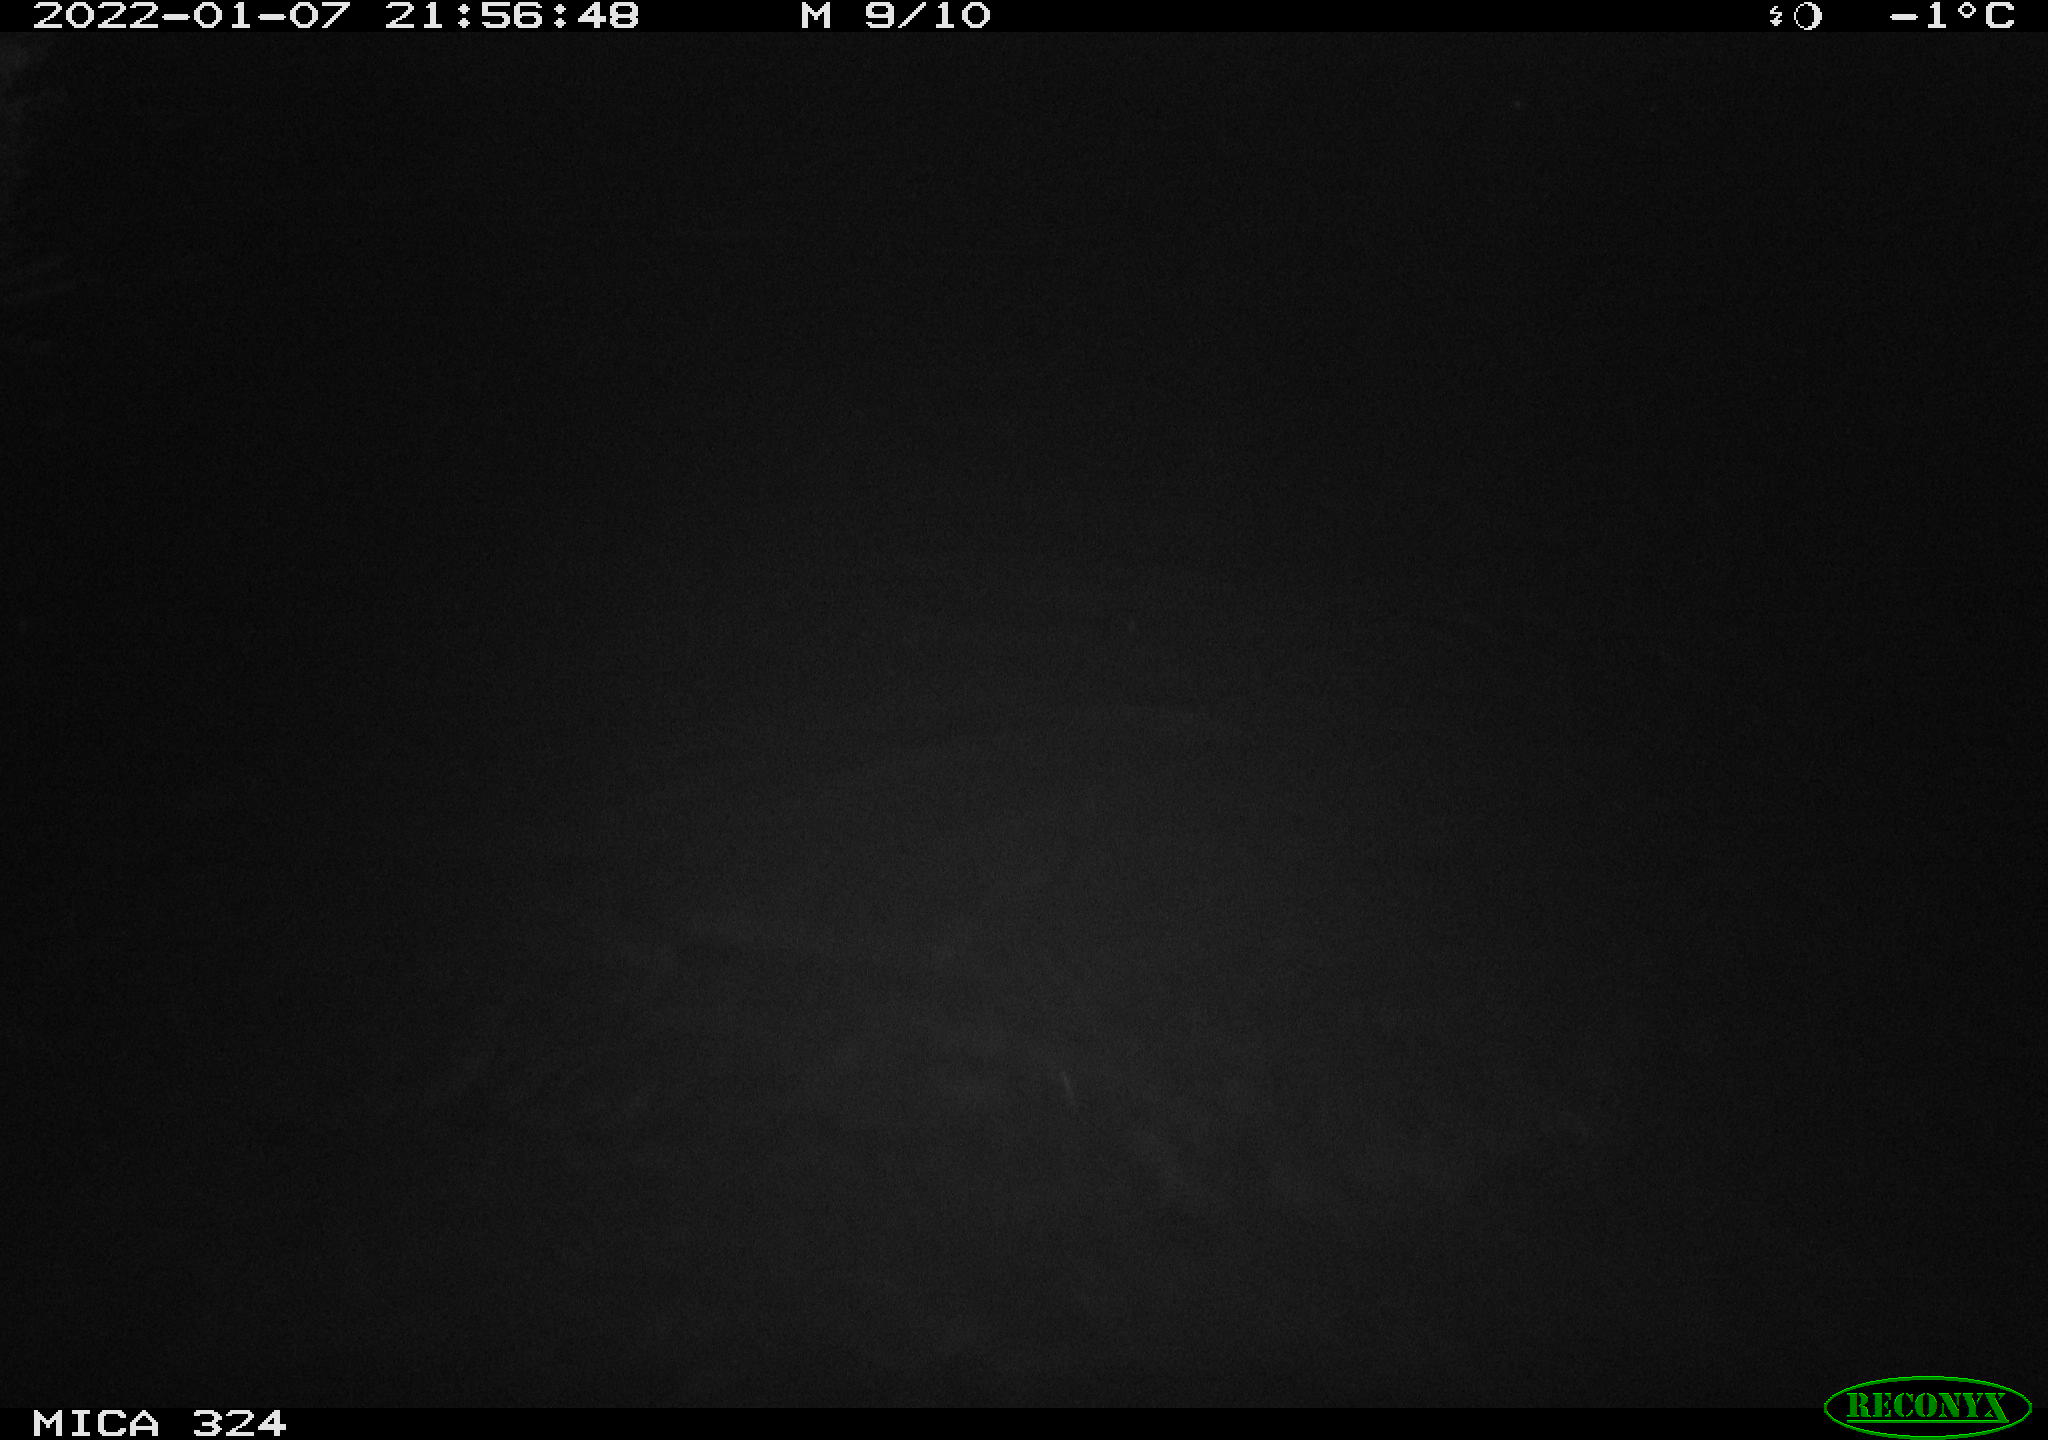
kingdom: Animalia
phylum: Chordata
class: Mammalia
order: Rodentia
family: Cricetidae
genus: Ondatra
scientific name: Ondatra zibethicus
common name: Muskrat
